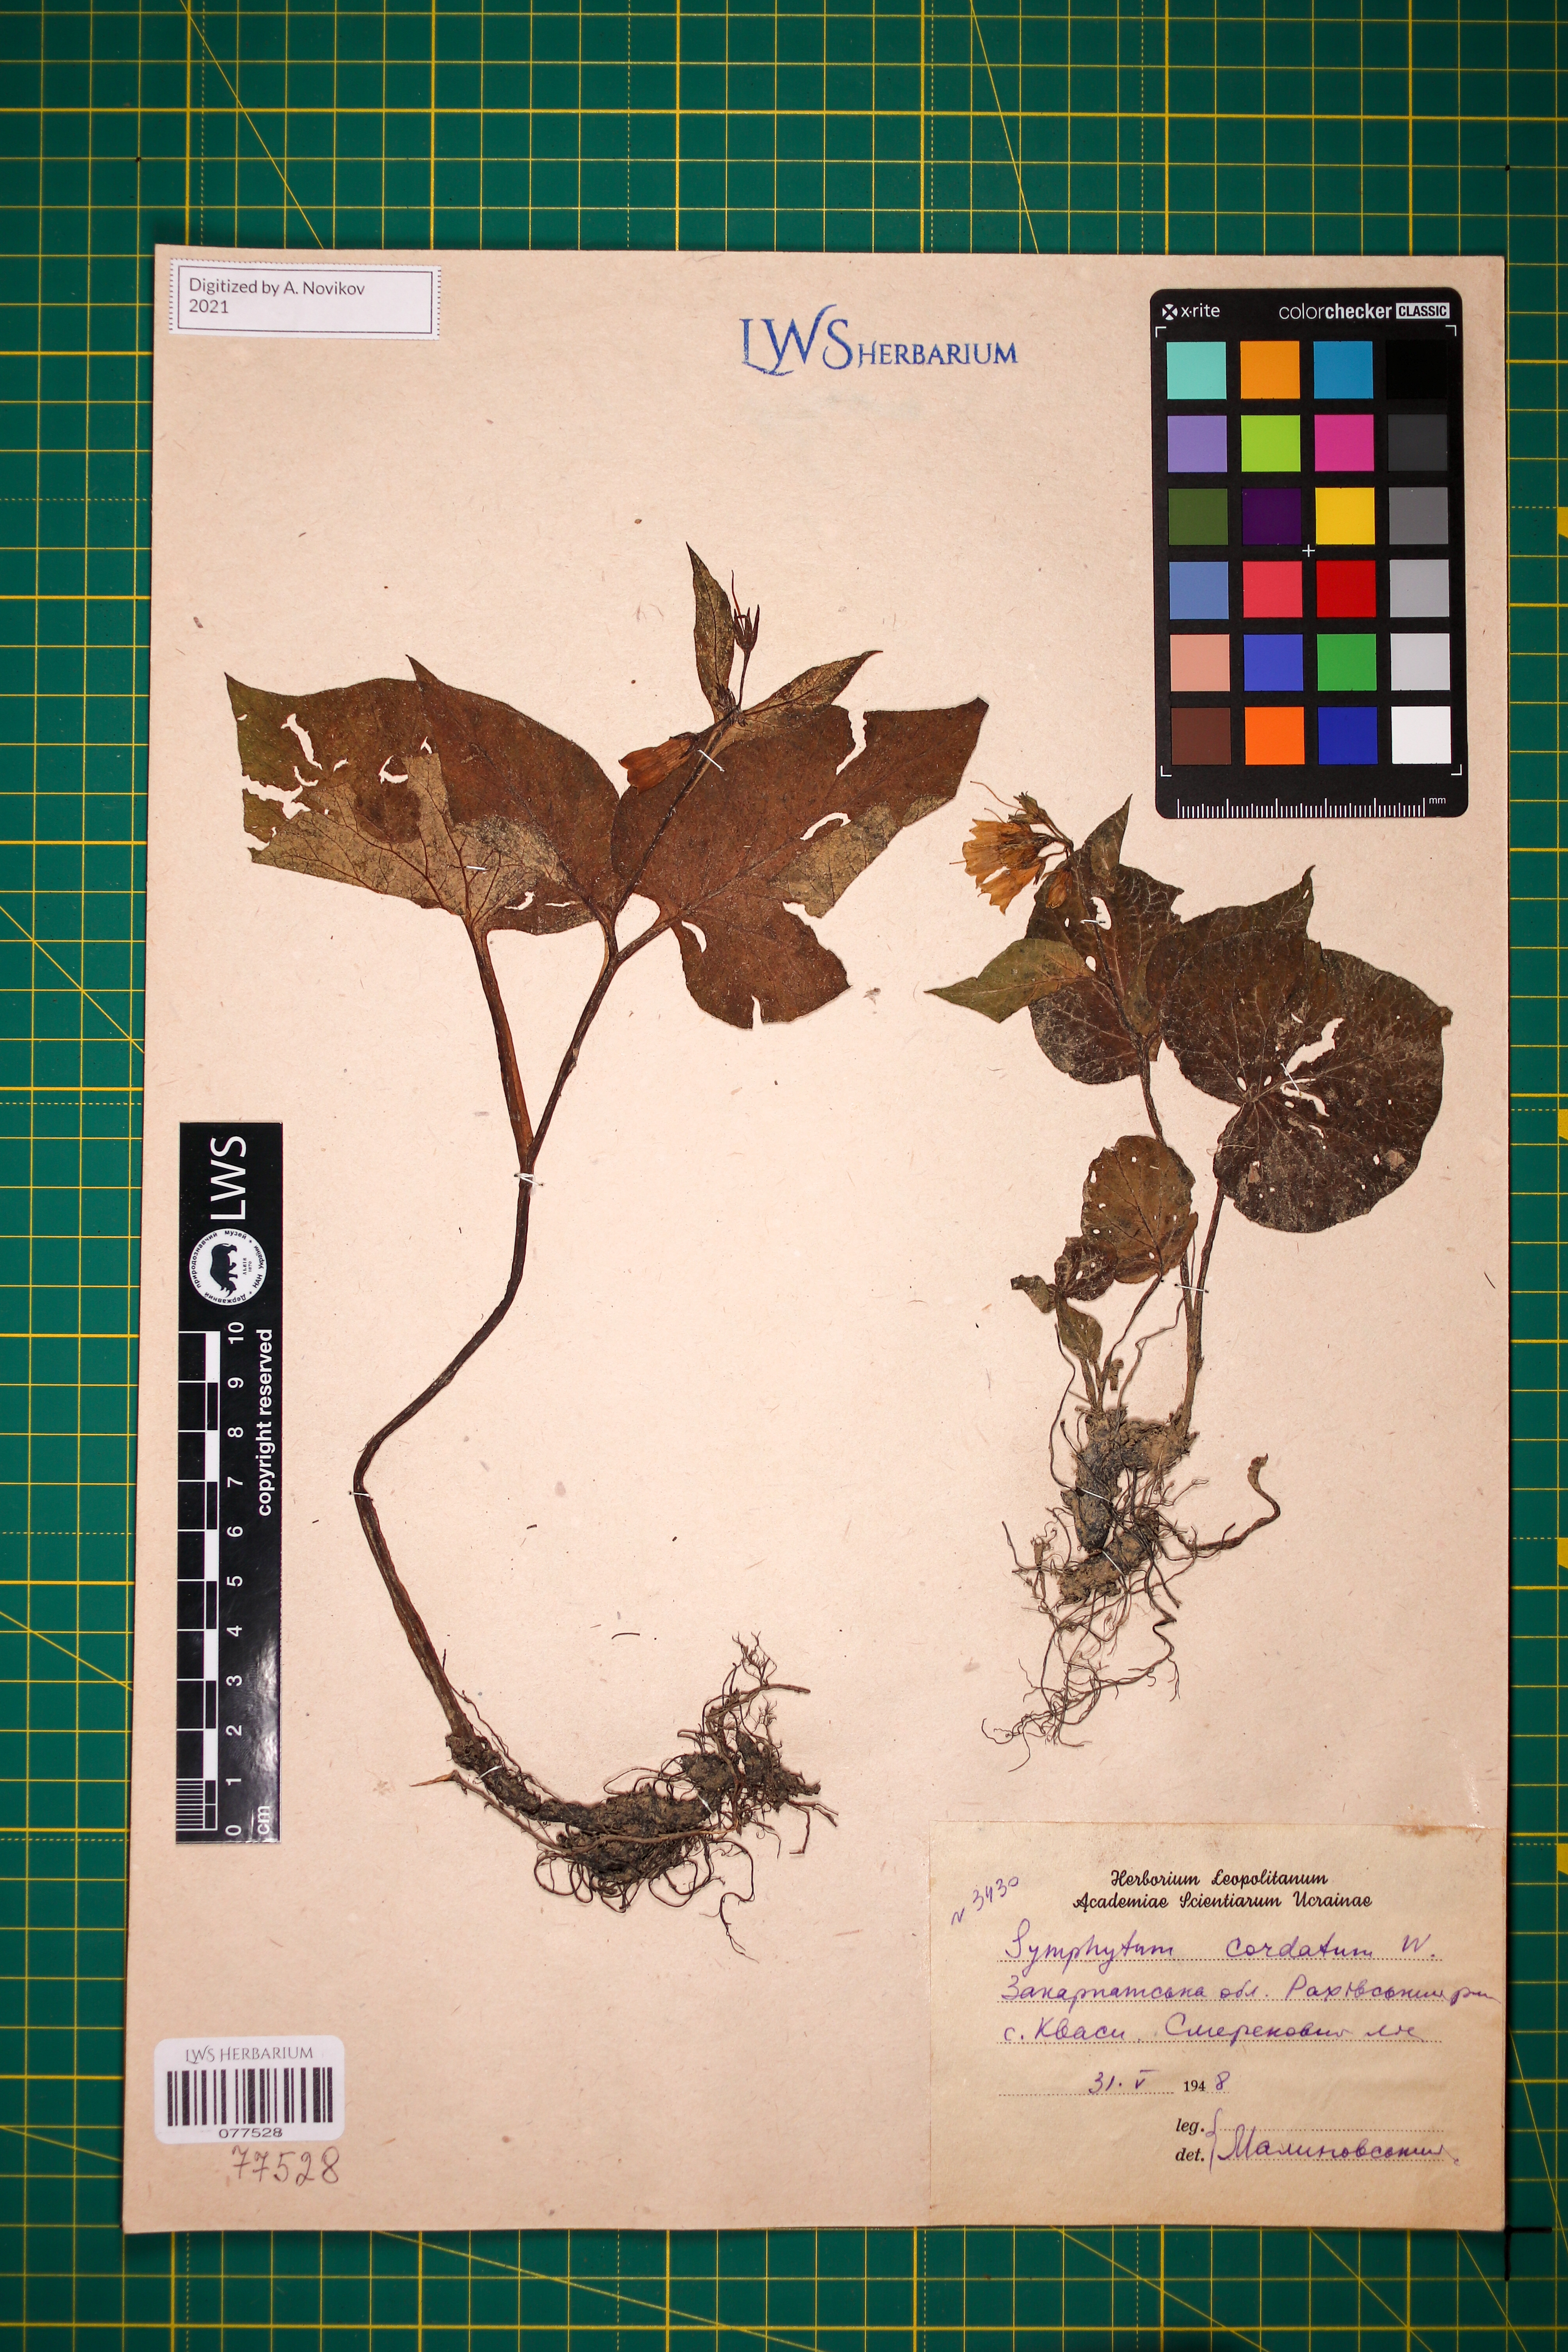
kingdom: Plantae
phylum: Tracheophyta
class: Magnoliopsida
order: Boraginales
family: Boraginaceae
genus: Symphytum
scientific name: Symphytum cordatum
